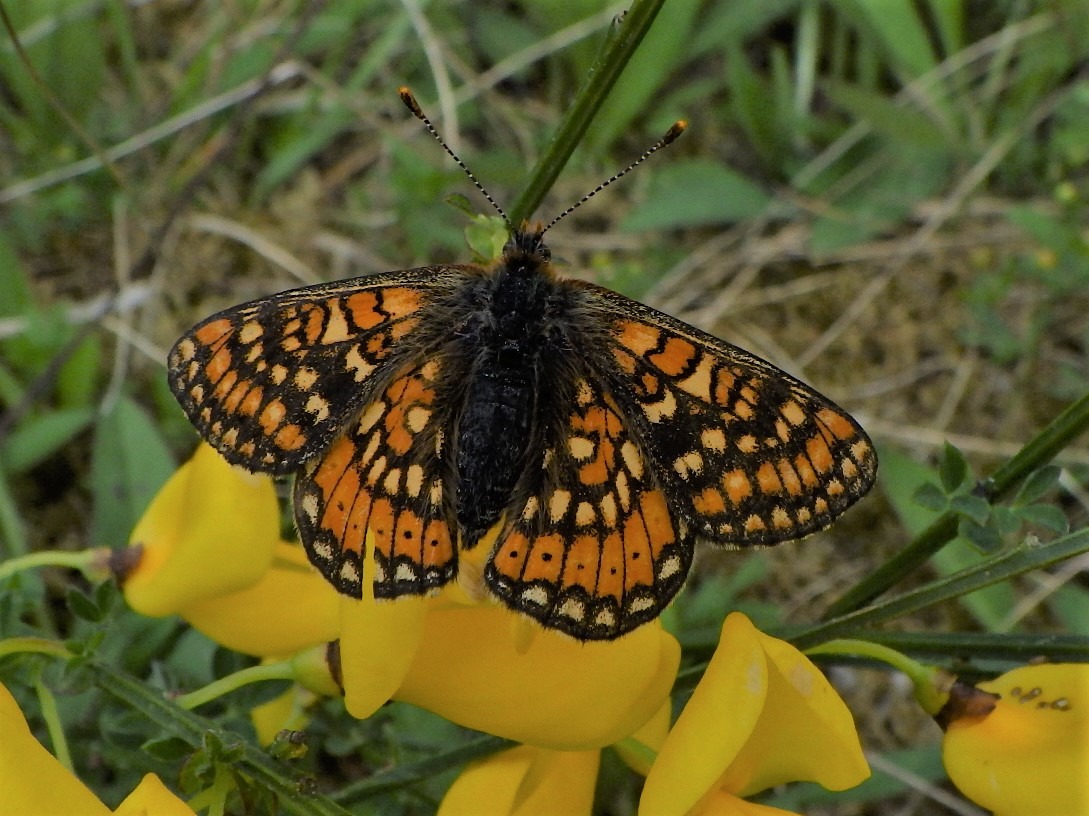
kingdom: Animalia
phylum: Arthropoda
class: Insecta
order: Lepidoptera
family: Nymphalidae
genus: Euphydryas
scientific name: Euphydryas aurinia
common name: Hedepletvinge
